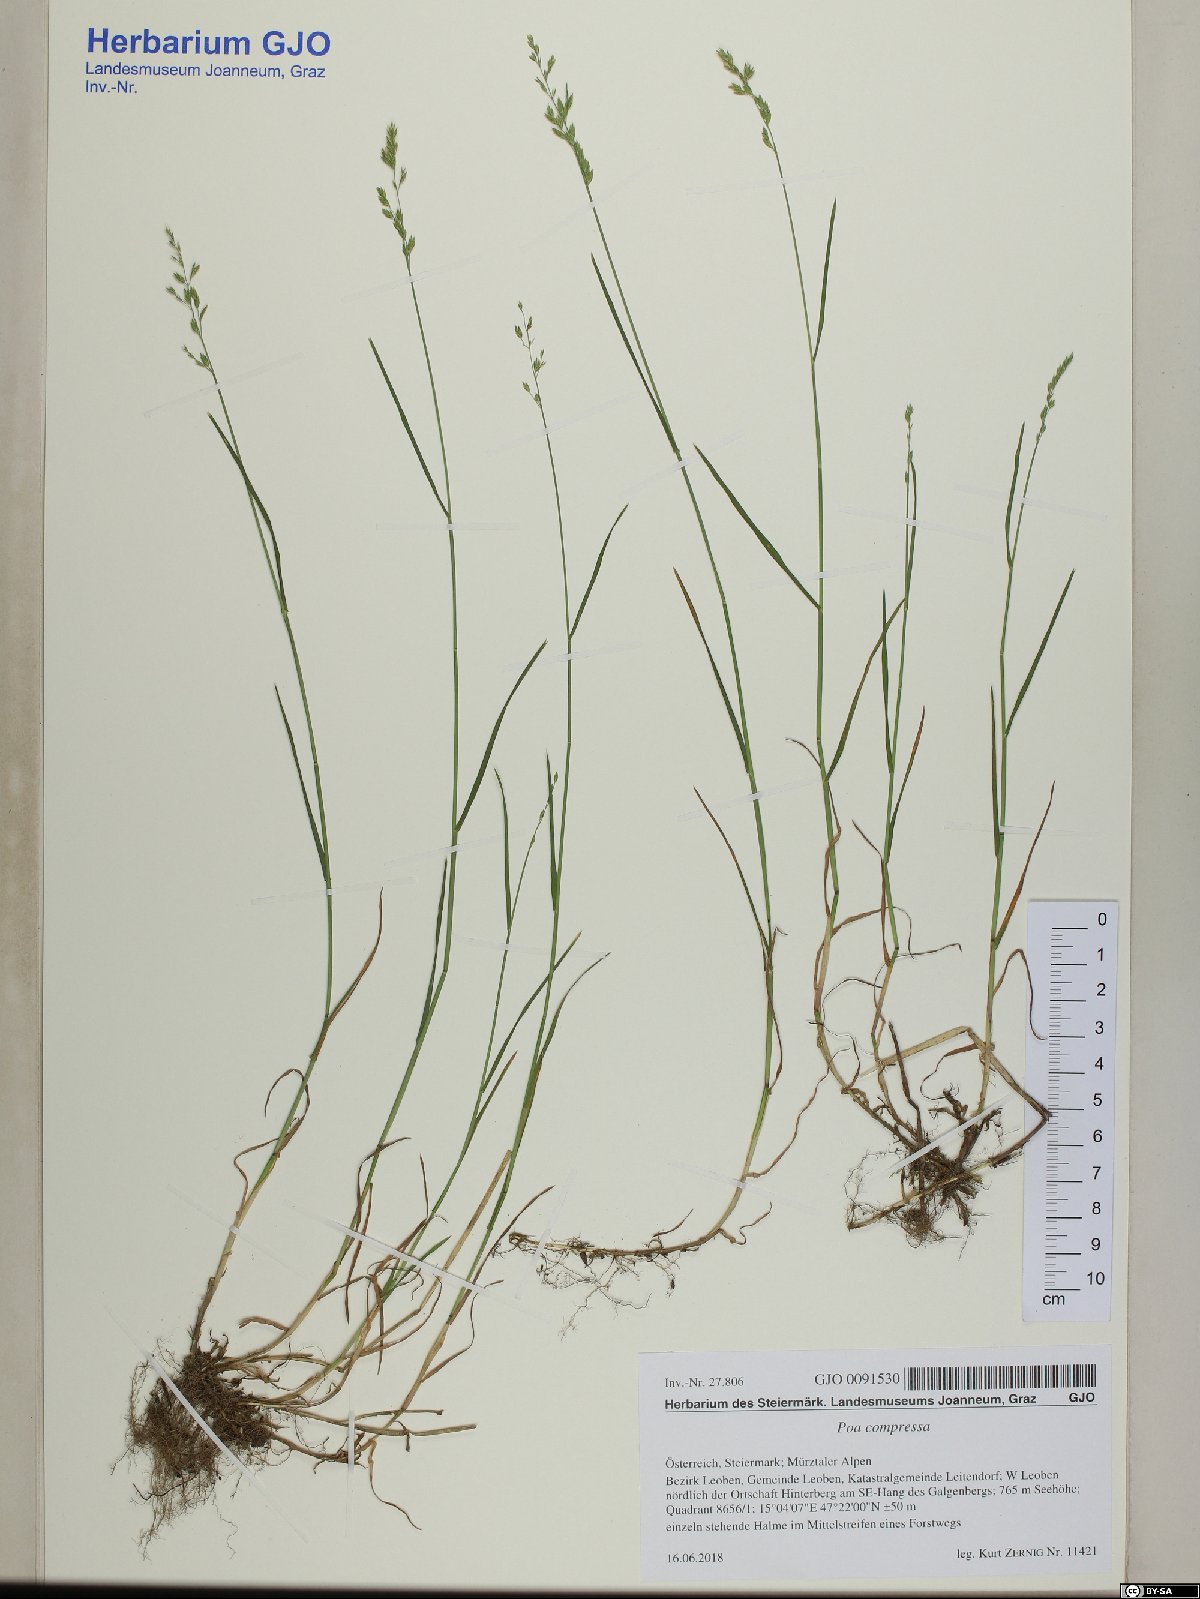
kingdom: Plantae
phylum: Tracheophyta
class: Liliopsida
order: Poales
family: Poaceae
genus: Poa
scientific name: Poa compressa
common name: Canada bluegrass
